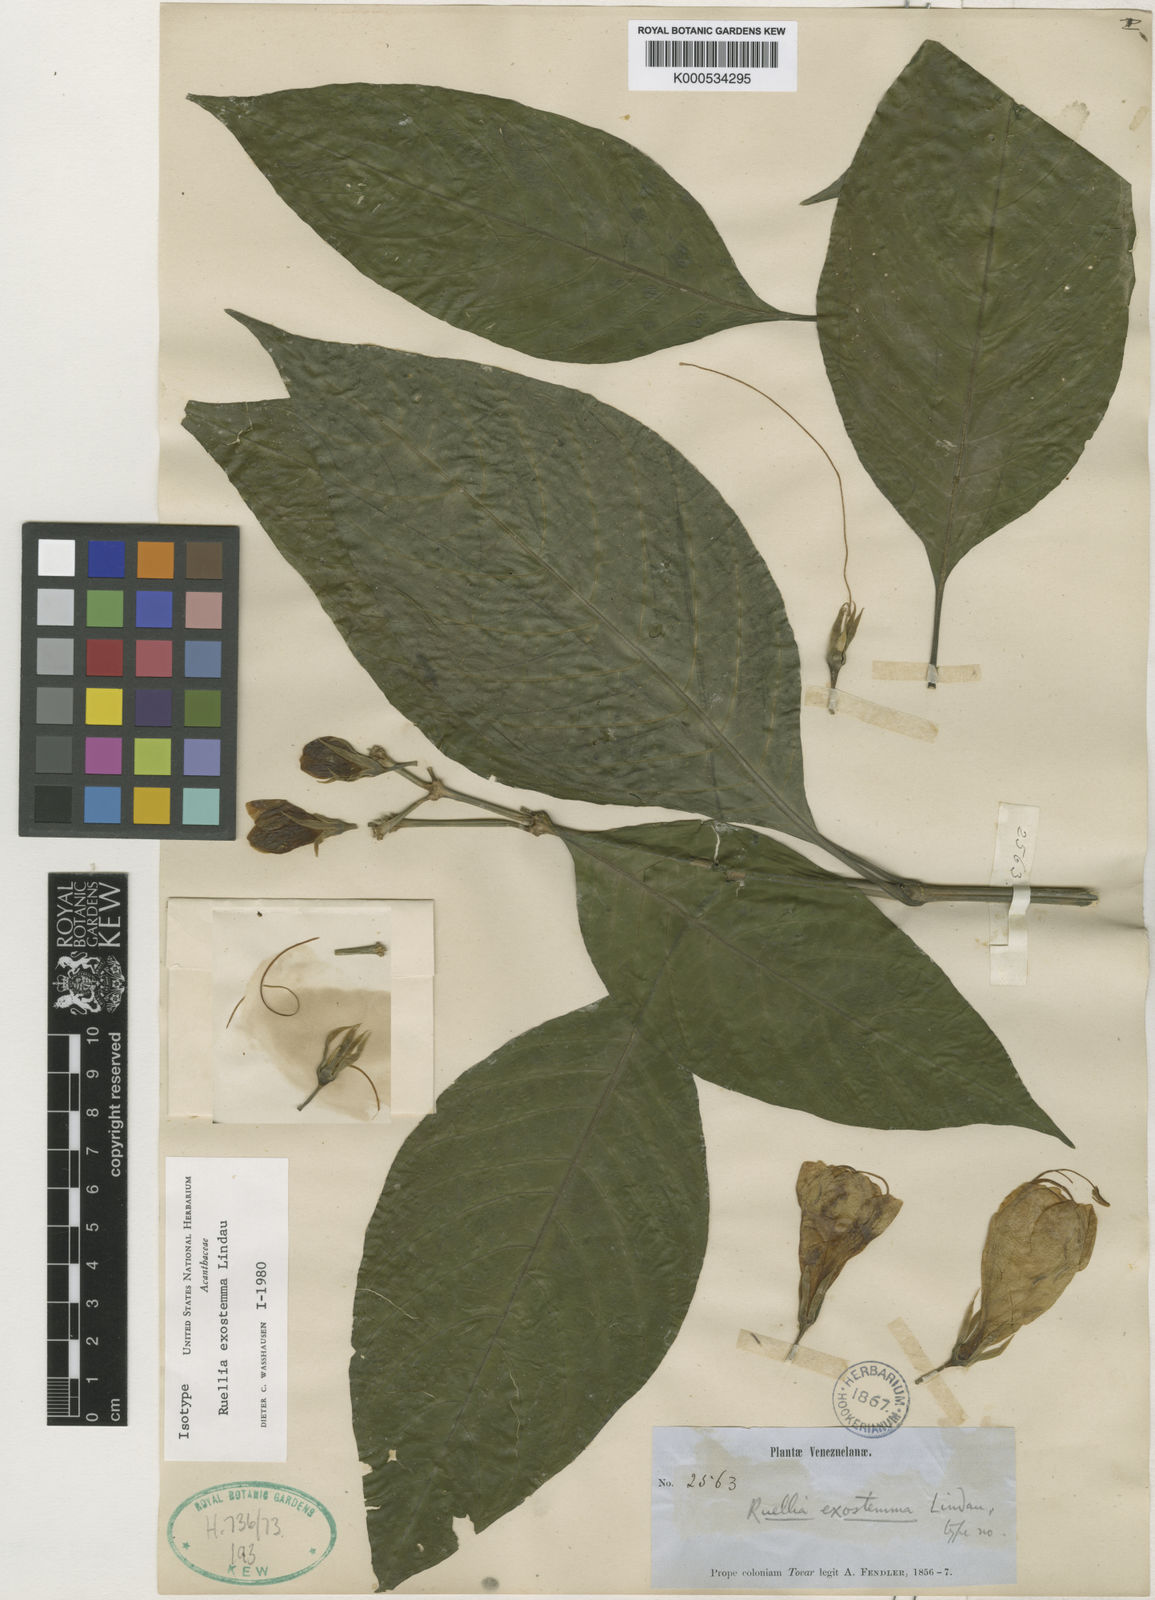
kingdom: Plantae
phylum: Tracheophyta
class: Magnoliopsida
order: Lamiales
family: Acanthaceae
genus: Ruellia
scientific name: Ruellia exostemma
